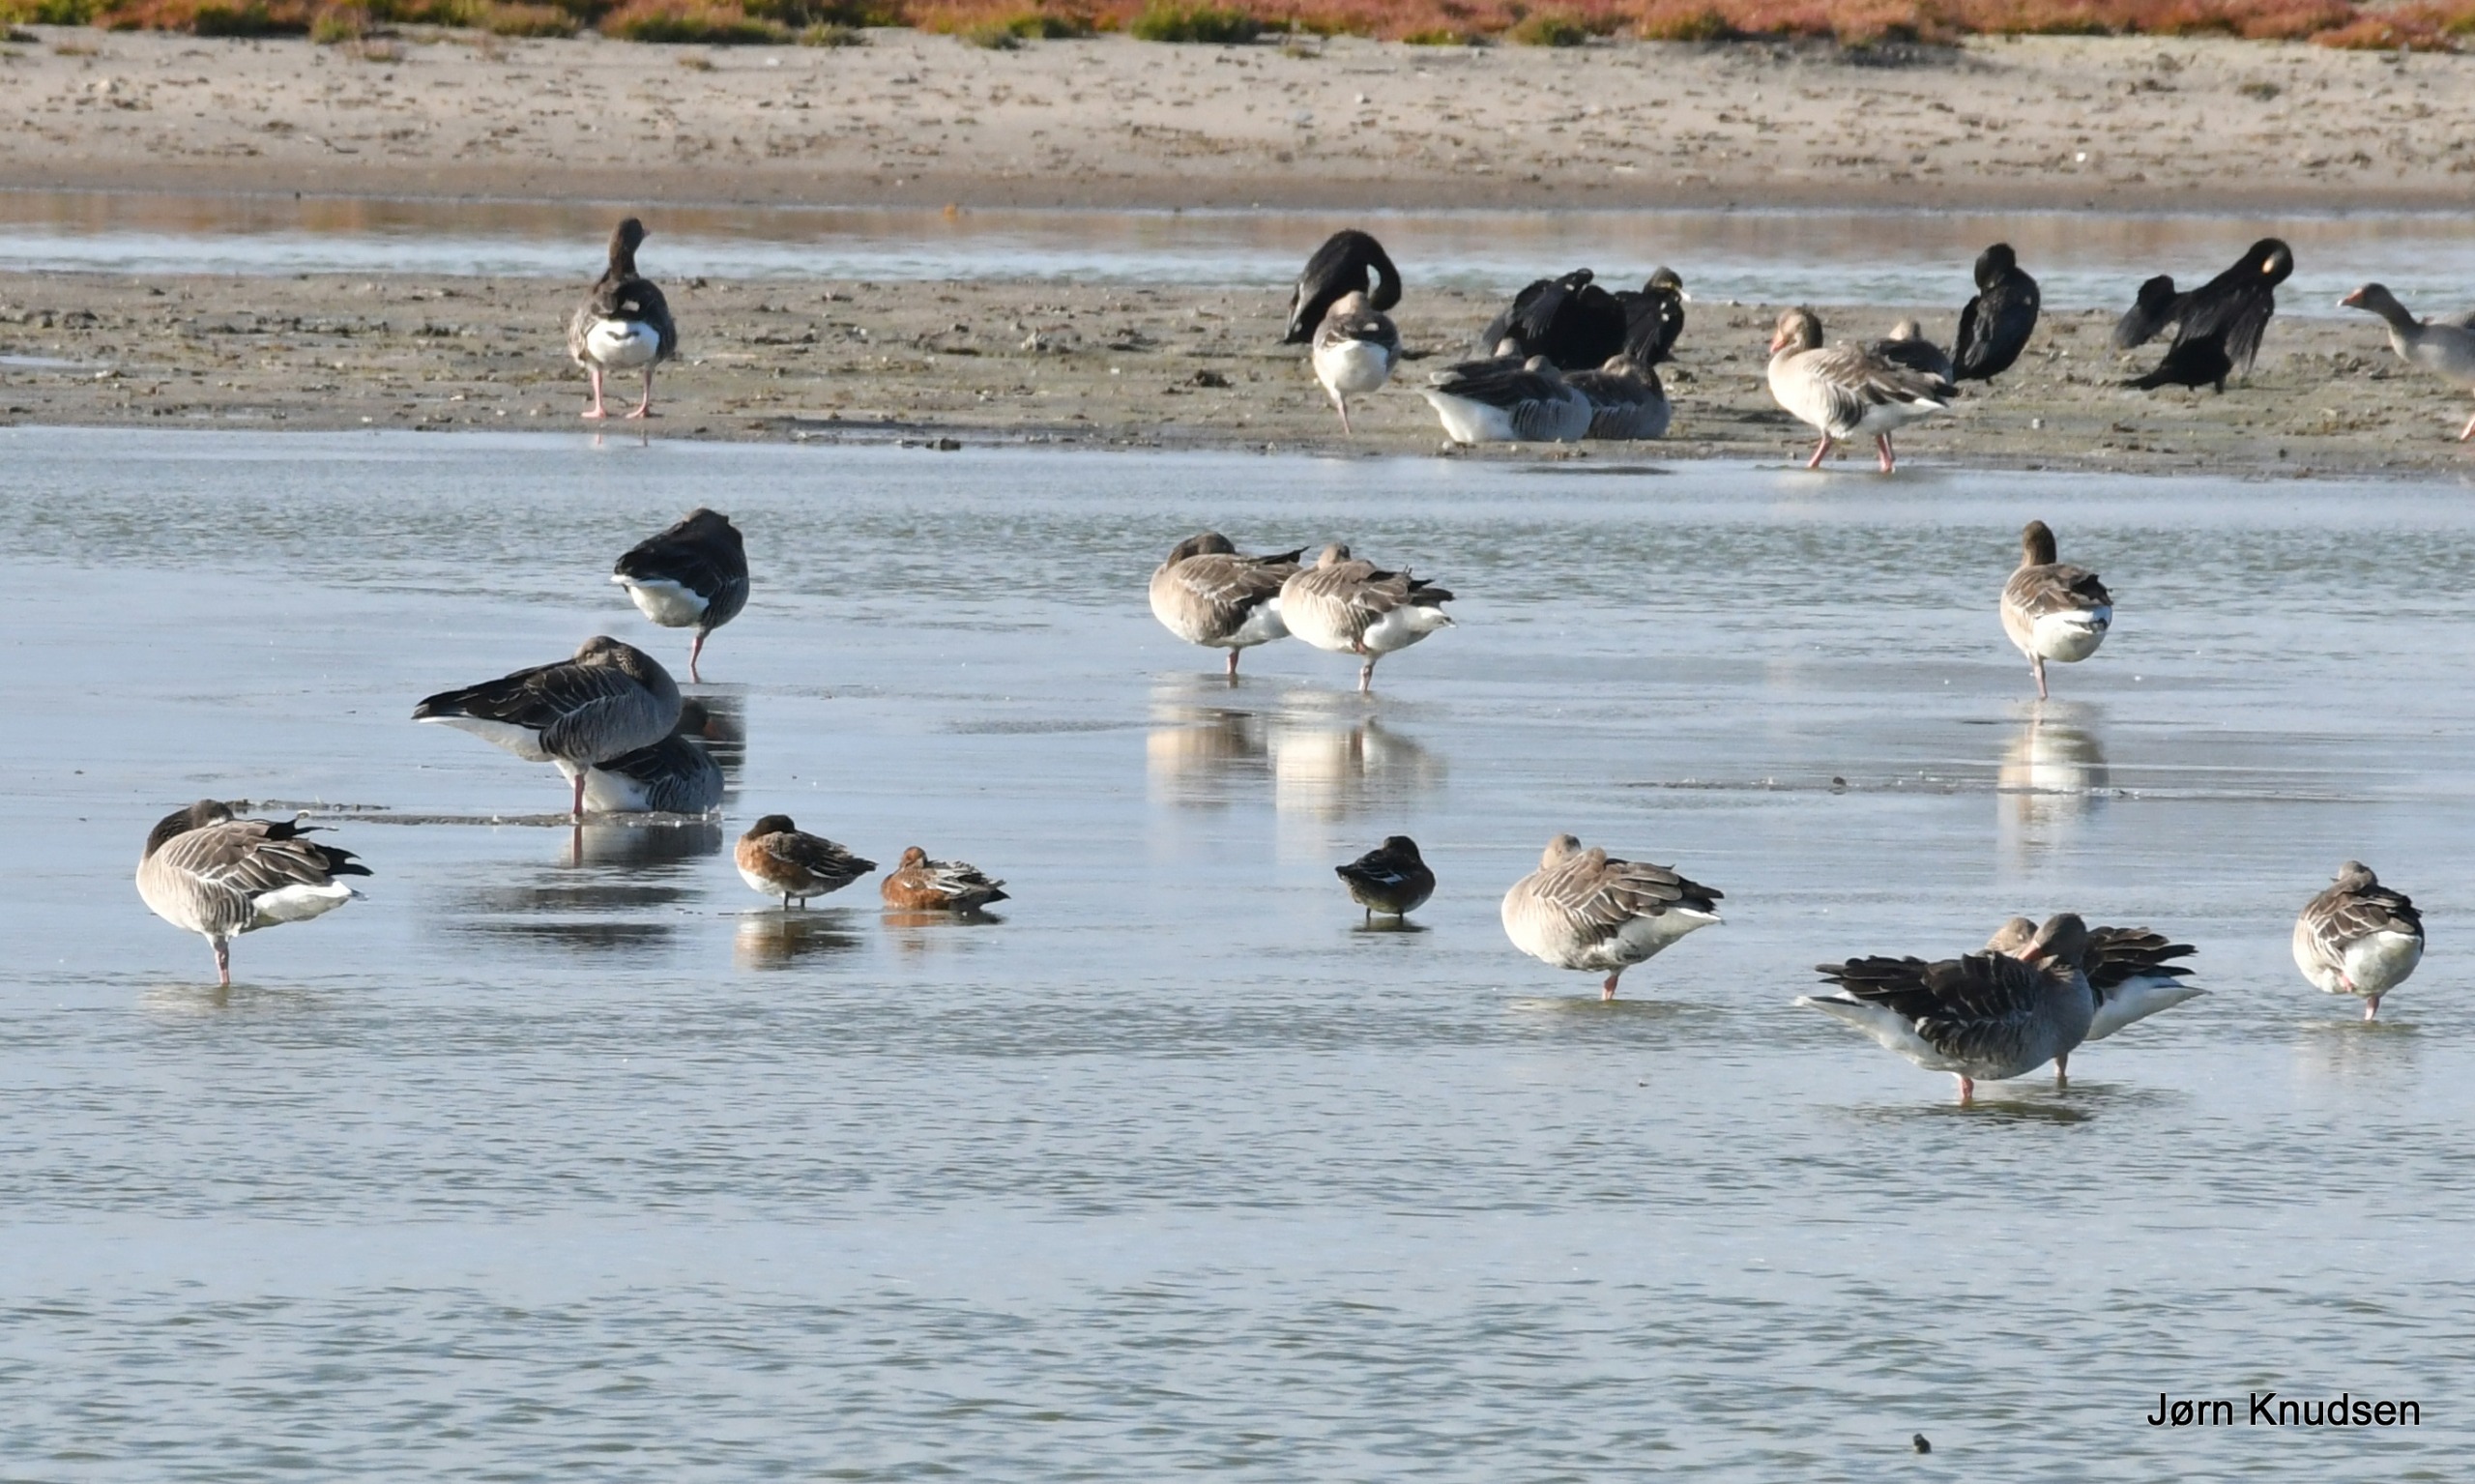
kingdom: Animalia
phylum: Chordata
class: Aves
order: Anseriformes
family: Anatidae
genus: Anser
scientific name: Anser anser
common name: Grågås
